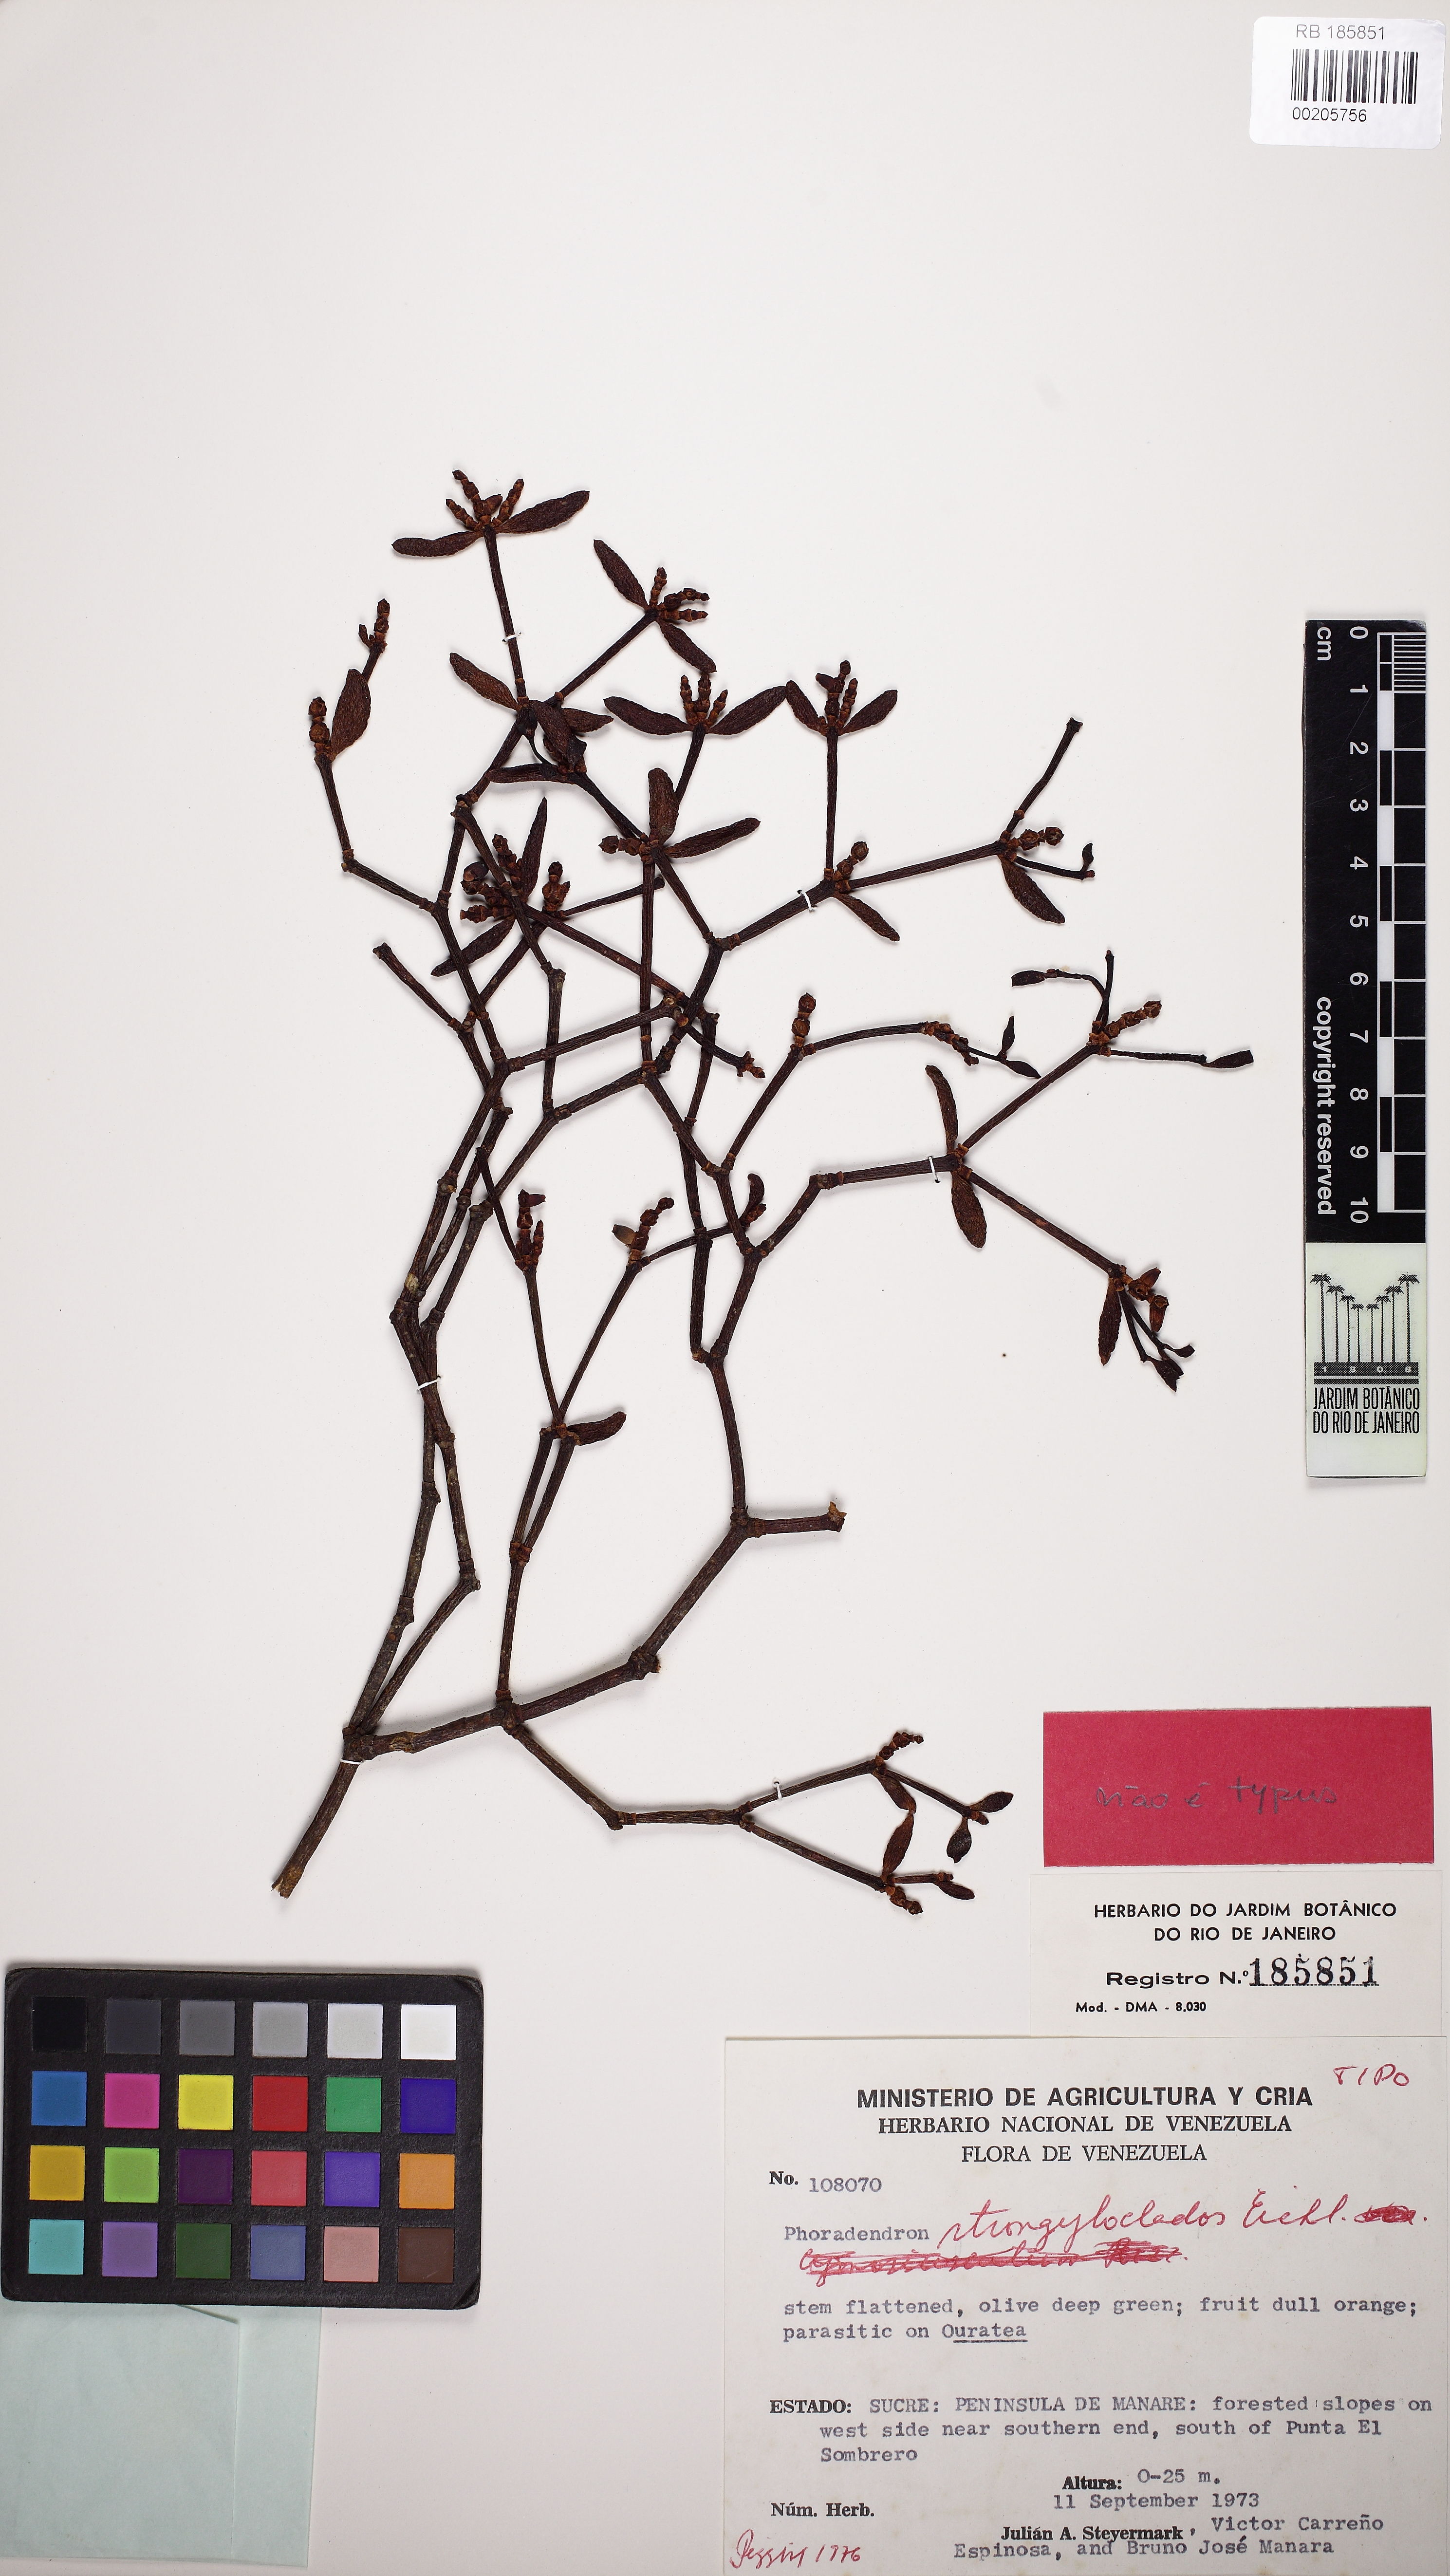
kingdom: Plantae
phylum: Tracheophyta
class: Magnoliopsida
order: Santalales
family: Viscaceae
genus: Phoradendron
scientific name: Phoradendron strongyloclados
